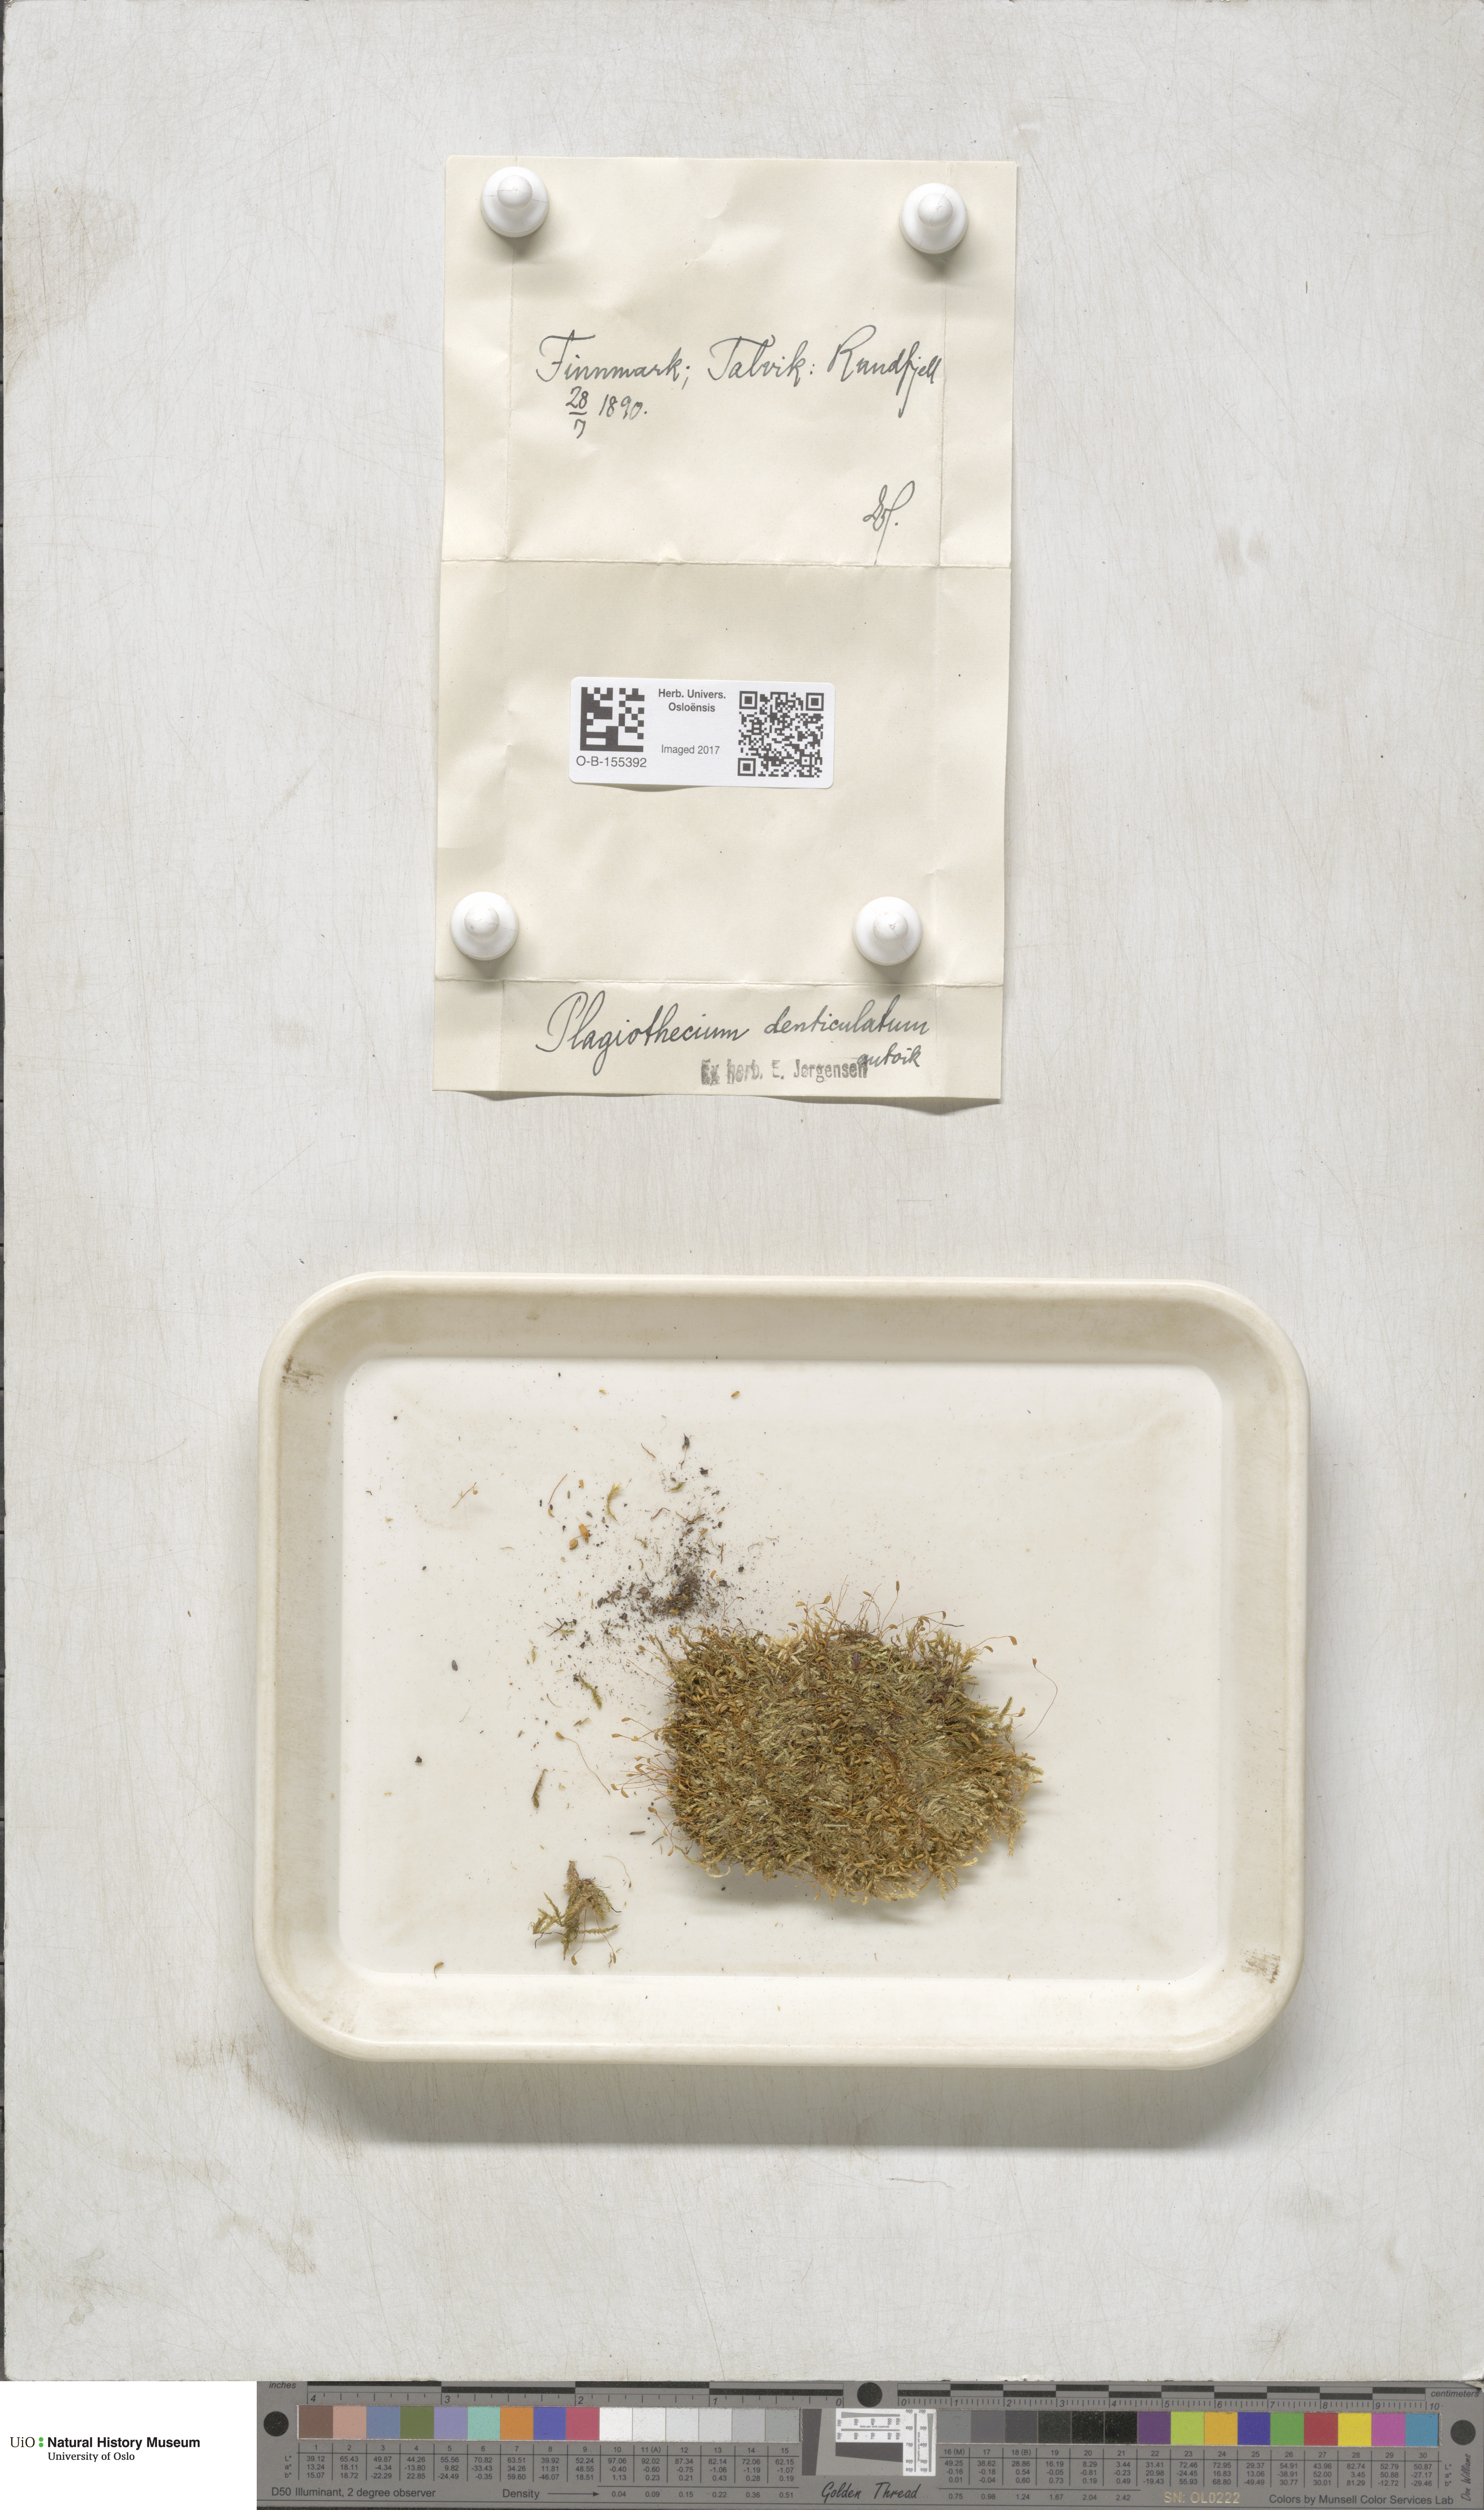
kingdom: Plantae
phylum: Bryophyta
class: Bryopsida
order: Hypnales
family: Plagiotheciaceae
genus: Plagiothecium
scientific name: Plagiothecium denticulatum
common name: Dented silk moss
